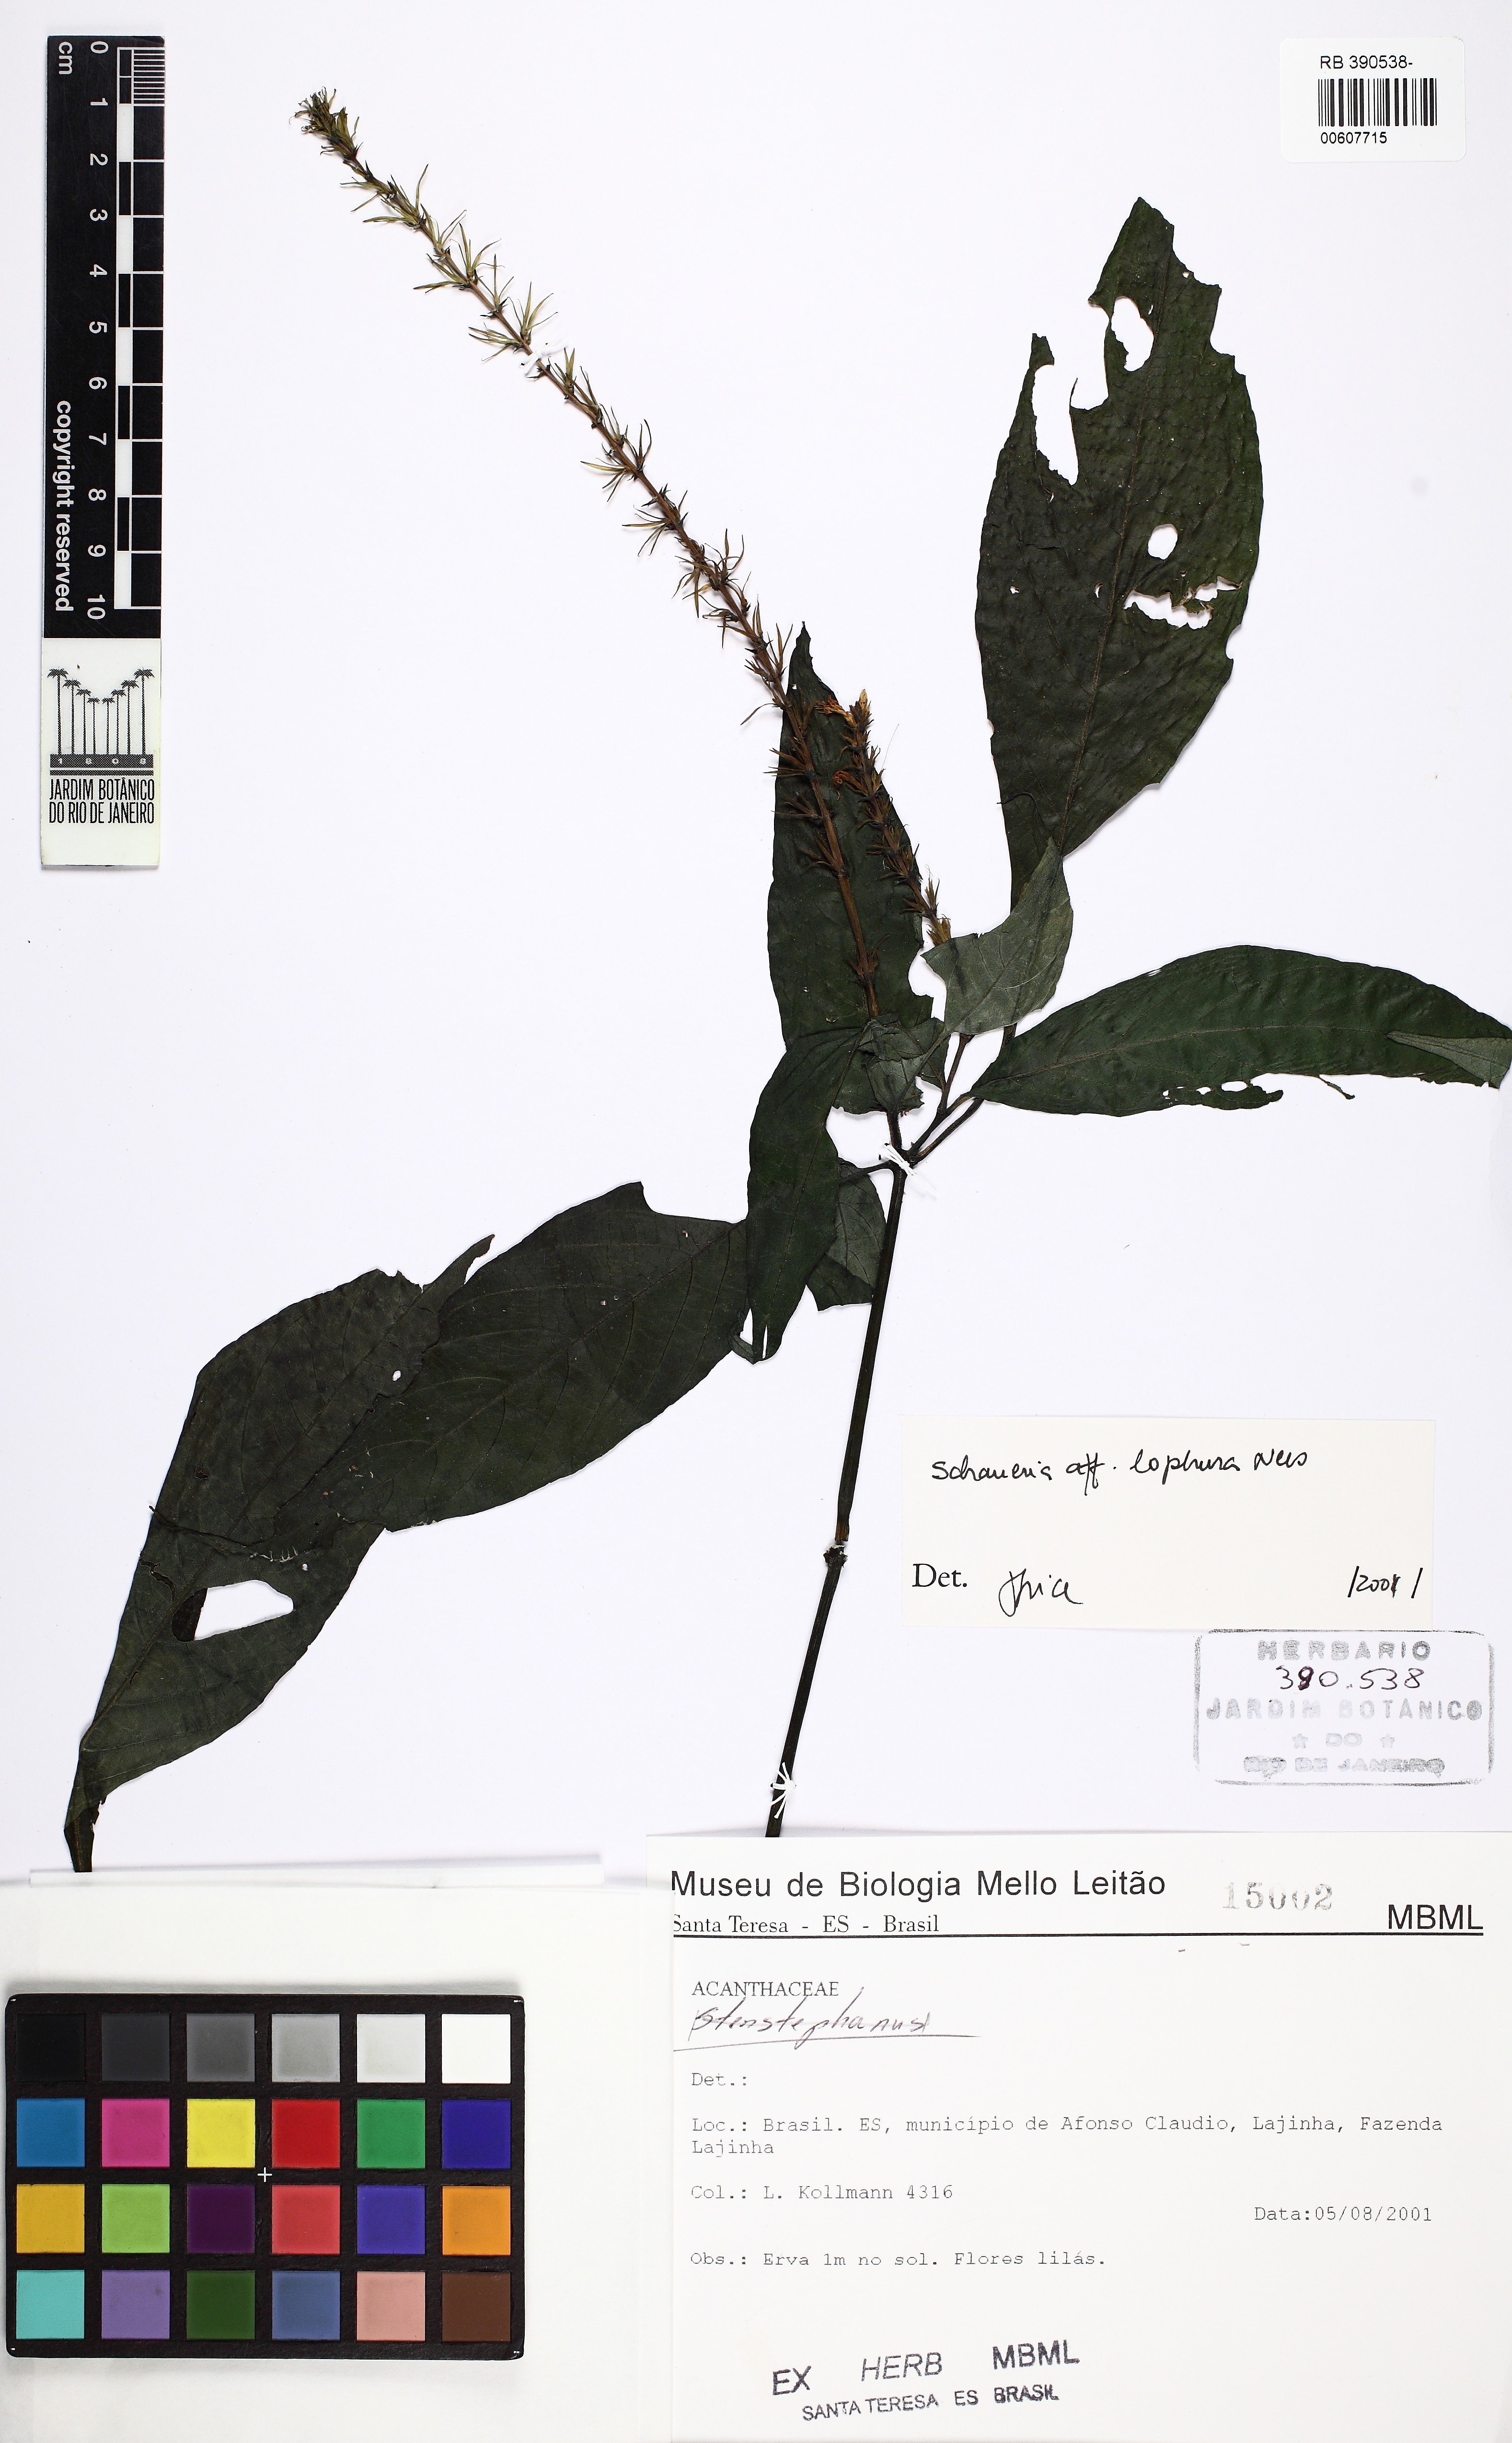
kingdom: Plantae
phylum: Tracheophyta
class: Magnoliopsida
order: Lamiales
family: Acanthaceae
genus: Schaueria
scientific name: Schaueria litoralis
